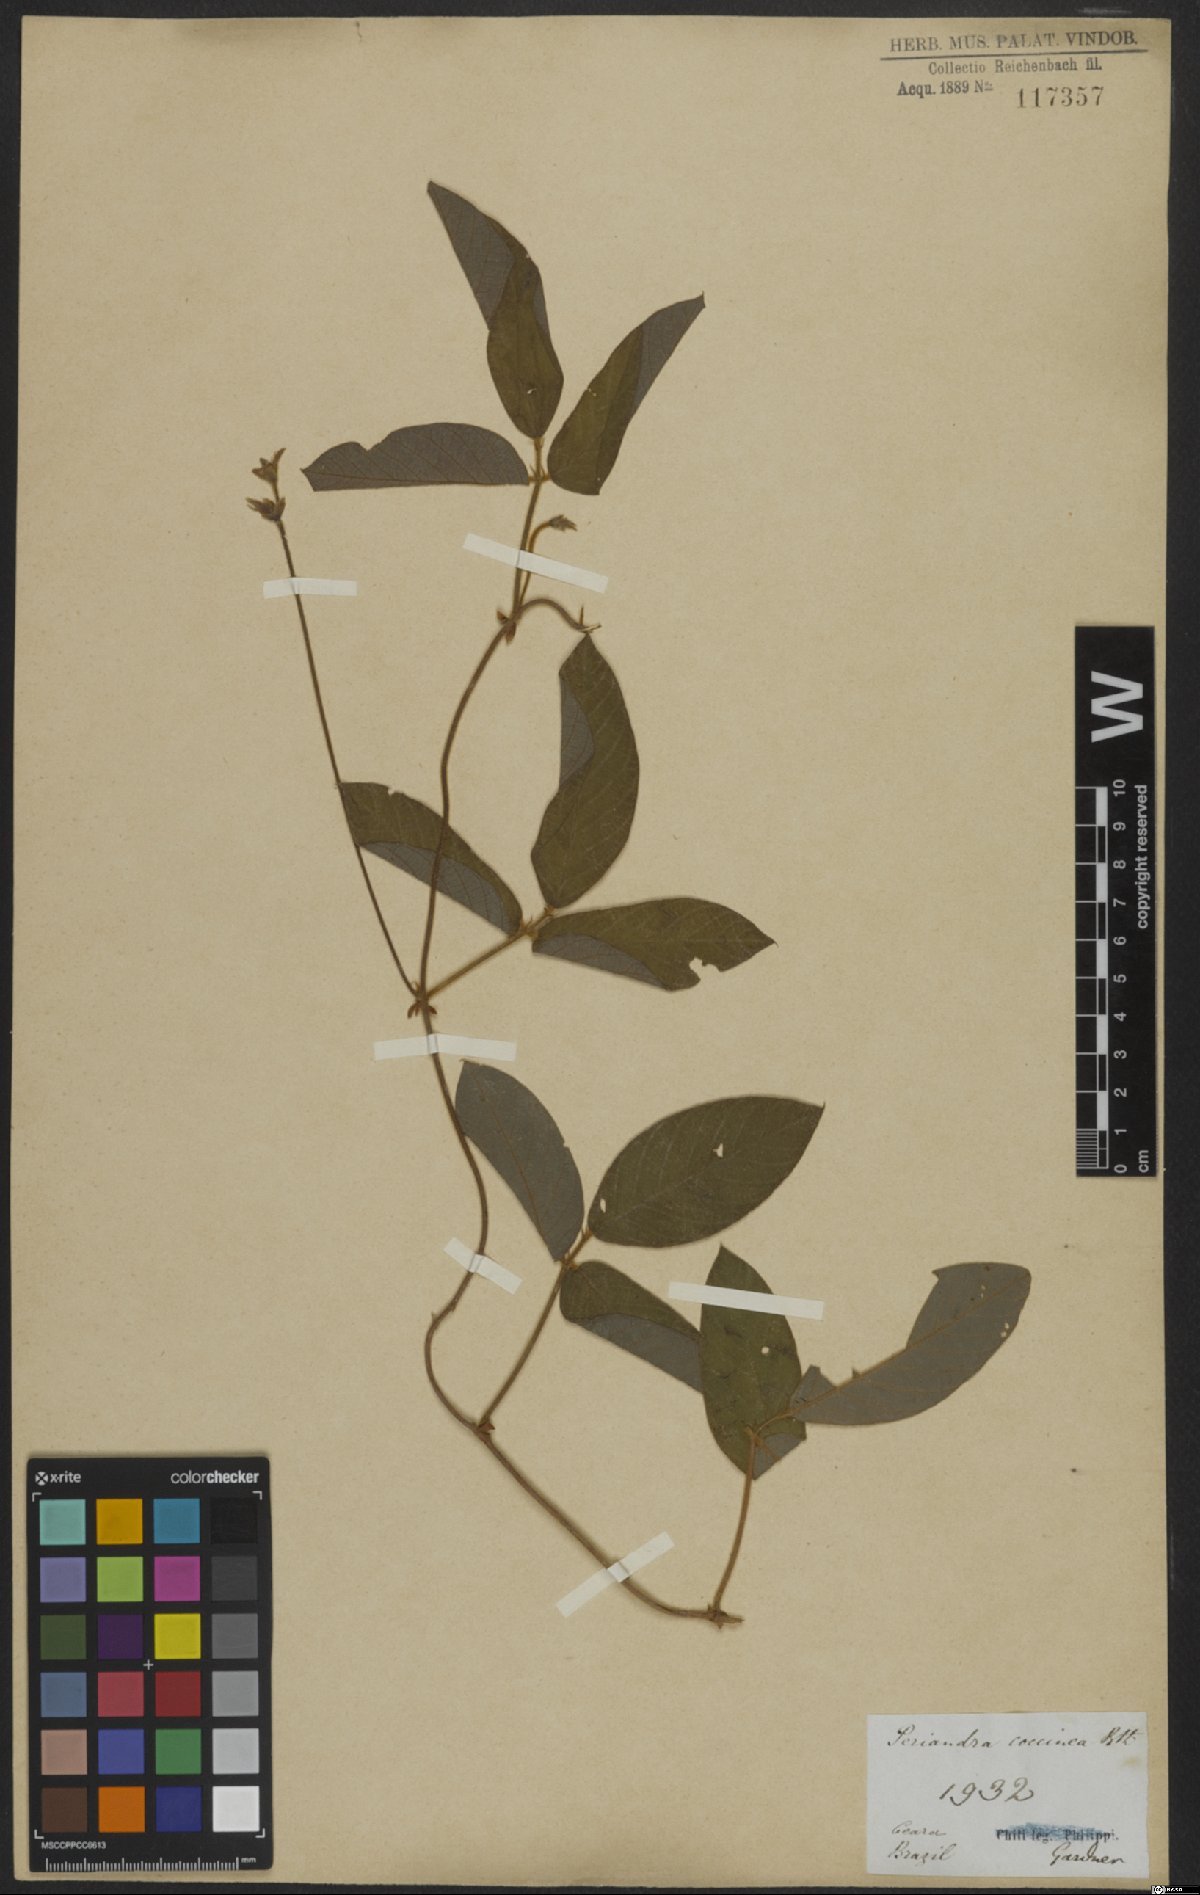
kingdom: Plantae
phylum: Tracheophyta
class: Magnoliopsida
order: Fabales
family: Fabaceae
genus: Periandra
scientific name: Periandra coccinea
